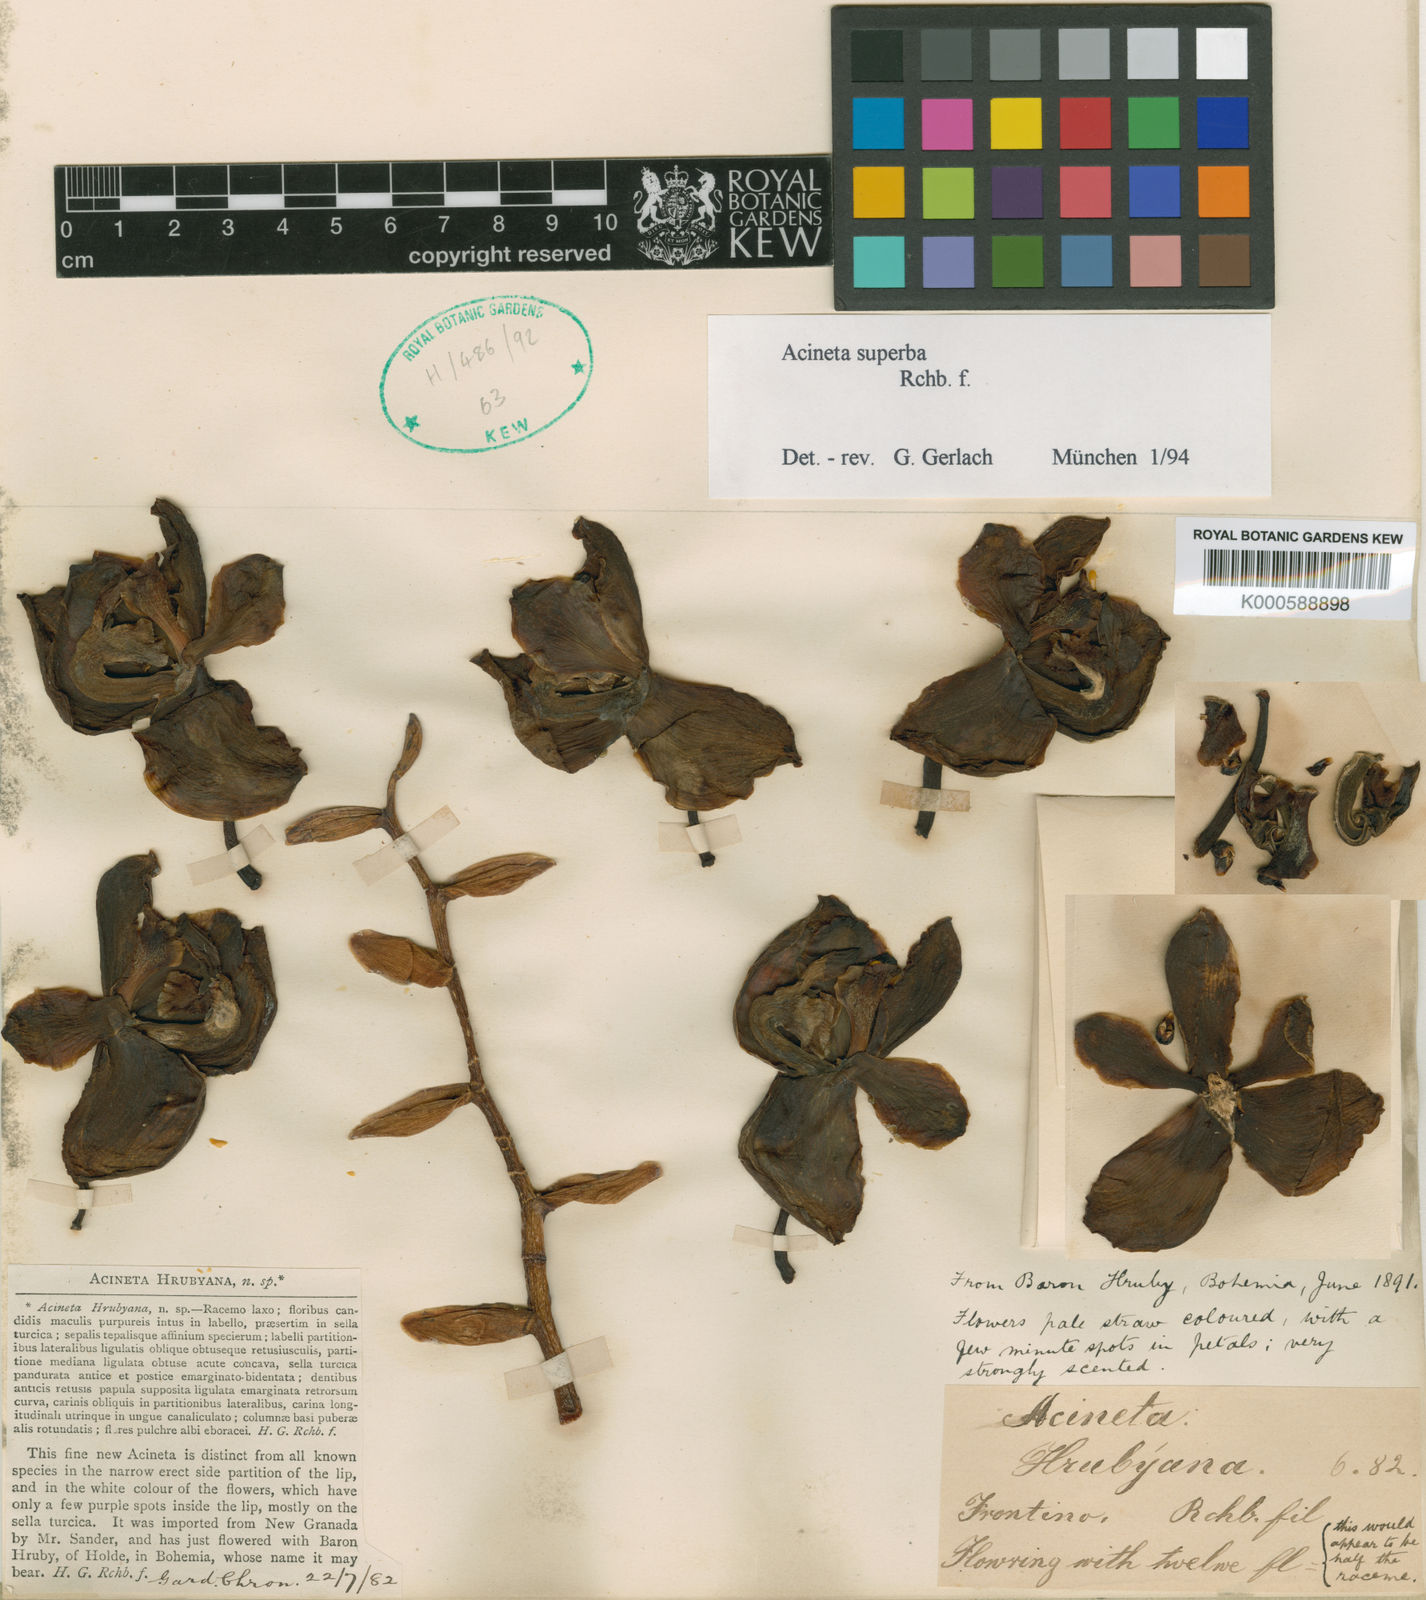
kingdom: Plantae
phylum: Tracheophyta
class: Liliopsida
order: Asparagales
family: Orchidaceae
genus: Acineta
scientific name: Acineta hrubyana
